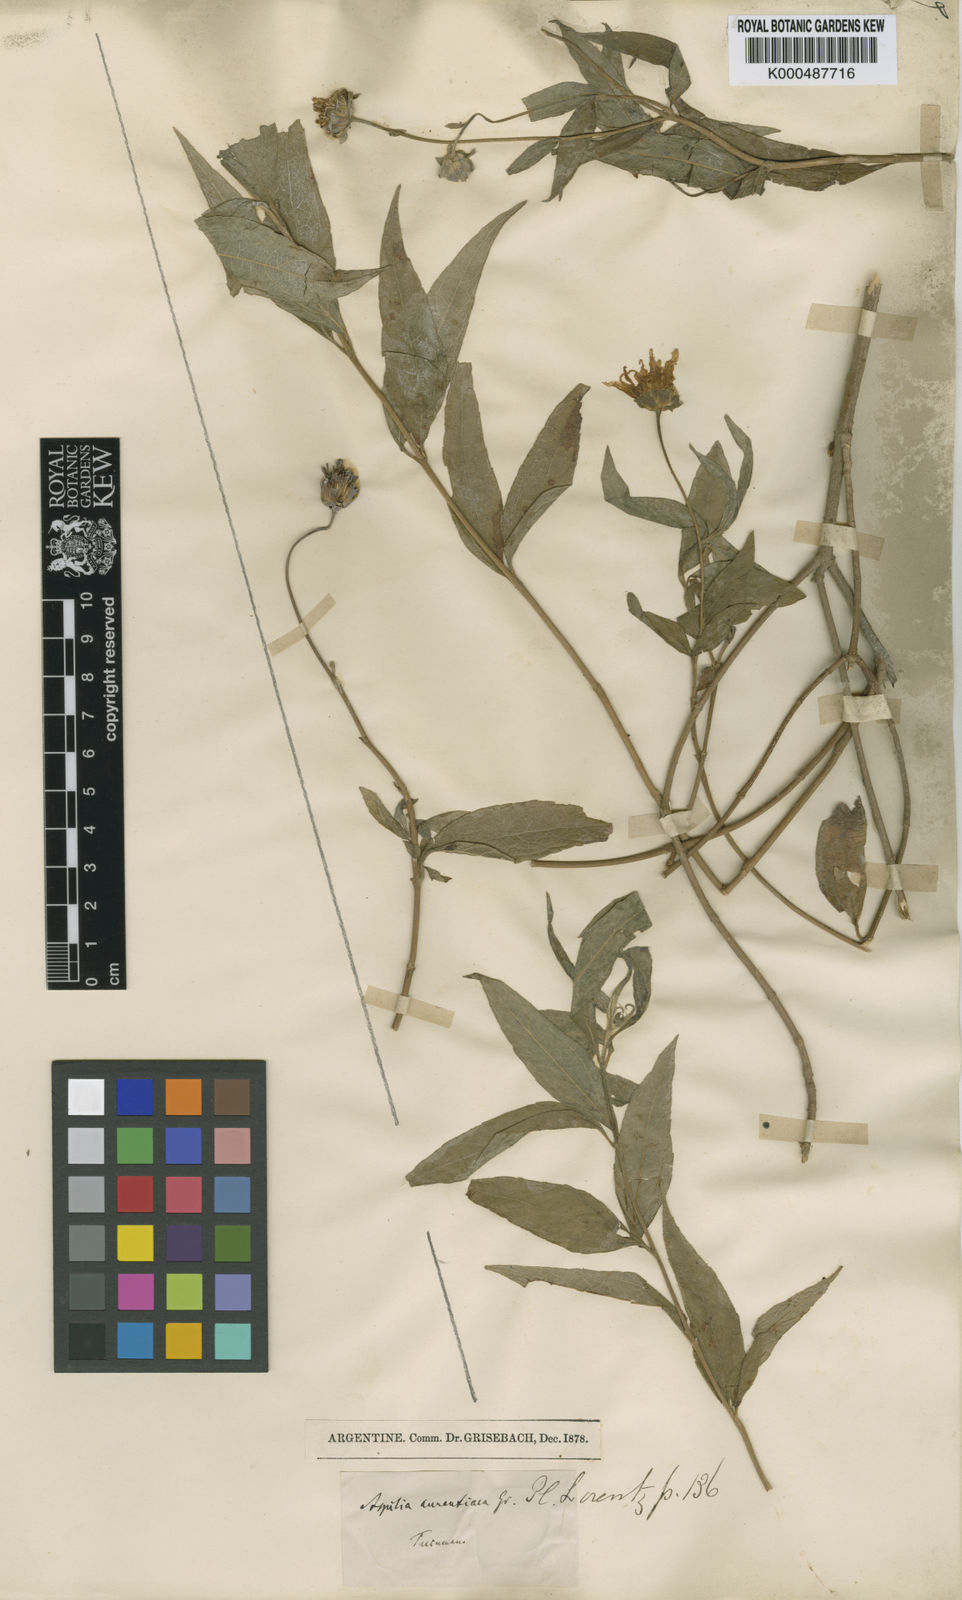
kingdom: Plantae
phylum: Tracheophyta
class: Magnoliopsida
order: Asterales
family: Asteraceae
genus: Wedelia
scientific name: Wedelia aurantiaca
